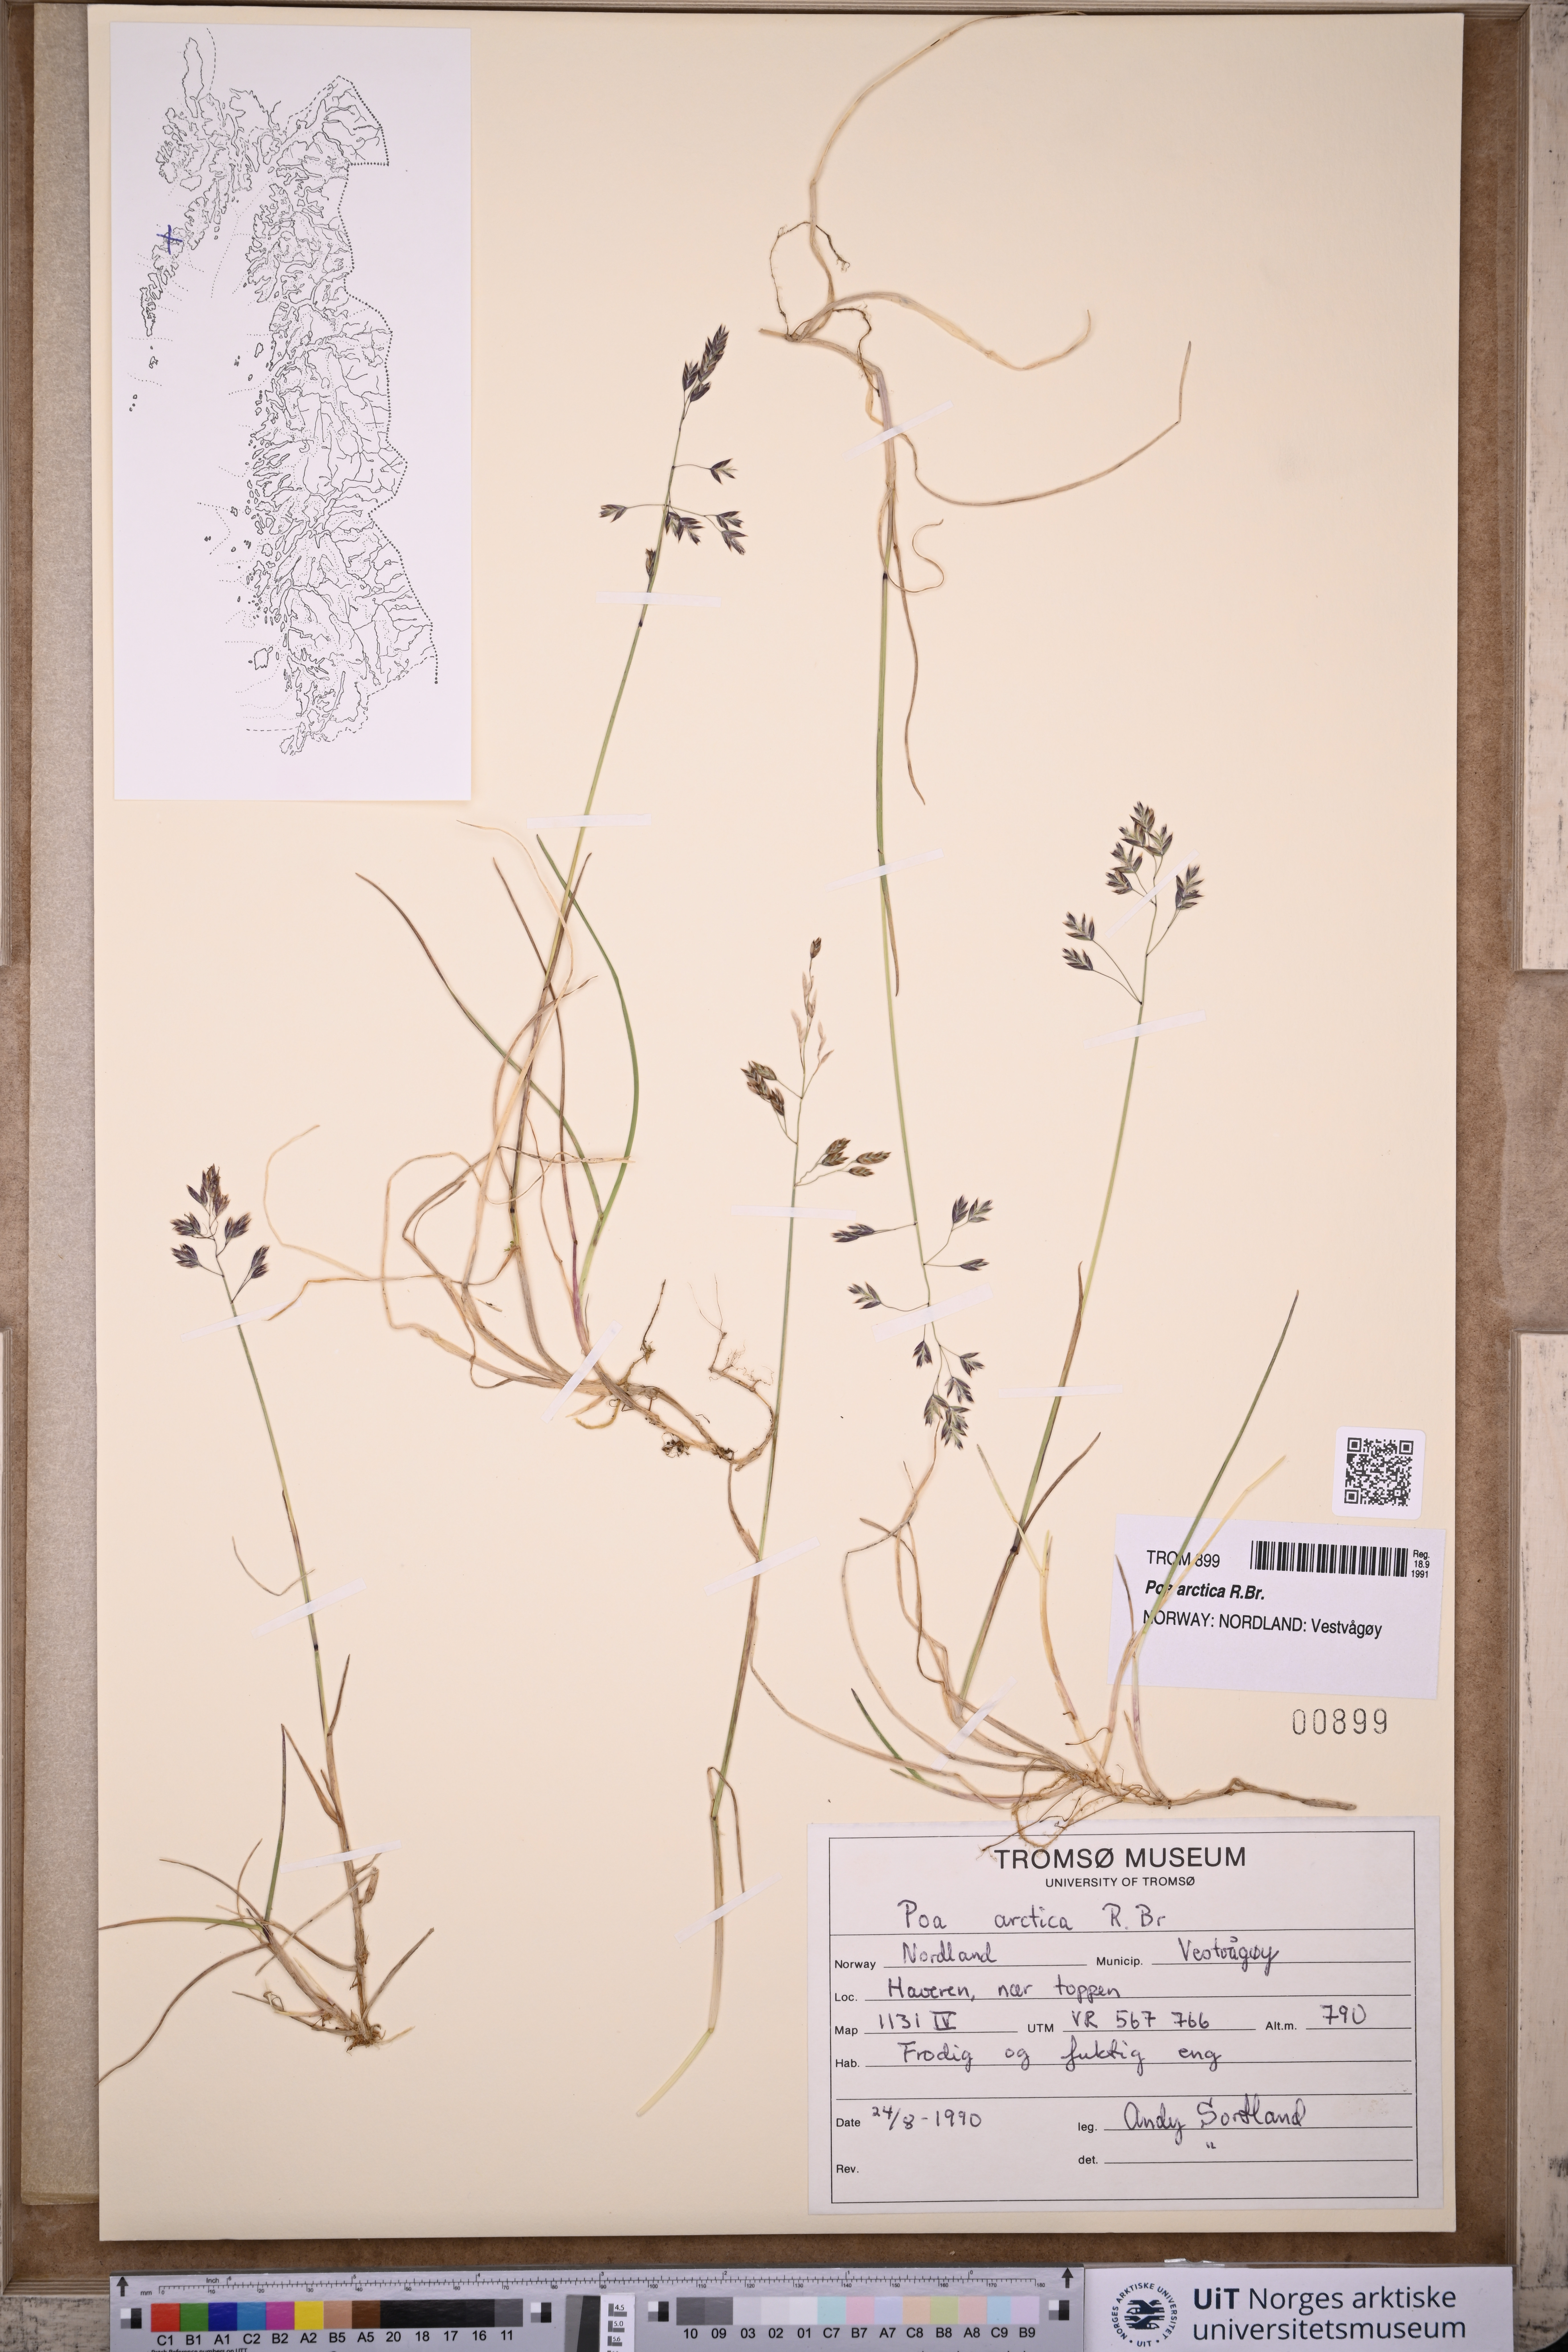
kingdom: Plantae
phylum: Tracheophyta
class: Liliopsida
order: Poales
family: Poaceae
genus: Poa
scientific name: Poa arctica
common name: Arctic bluegrass
